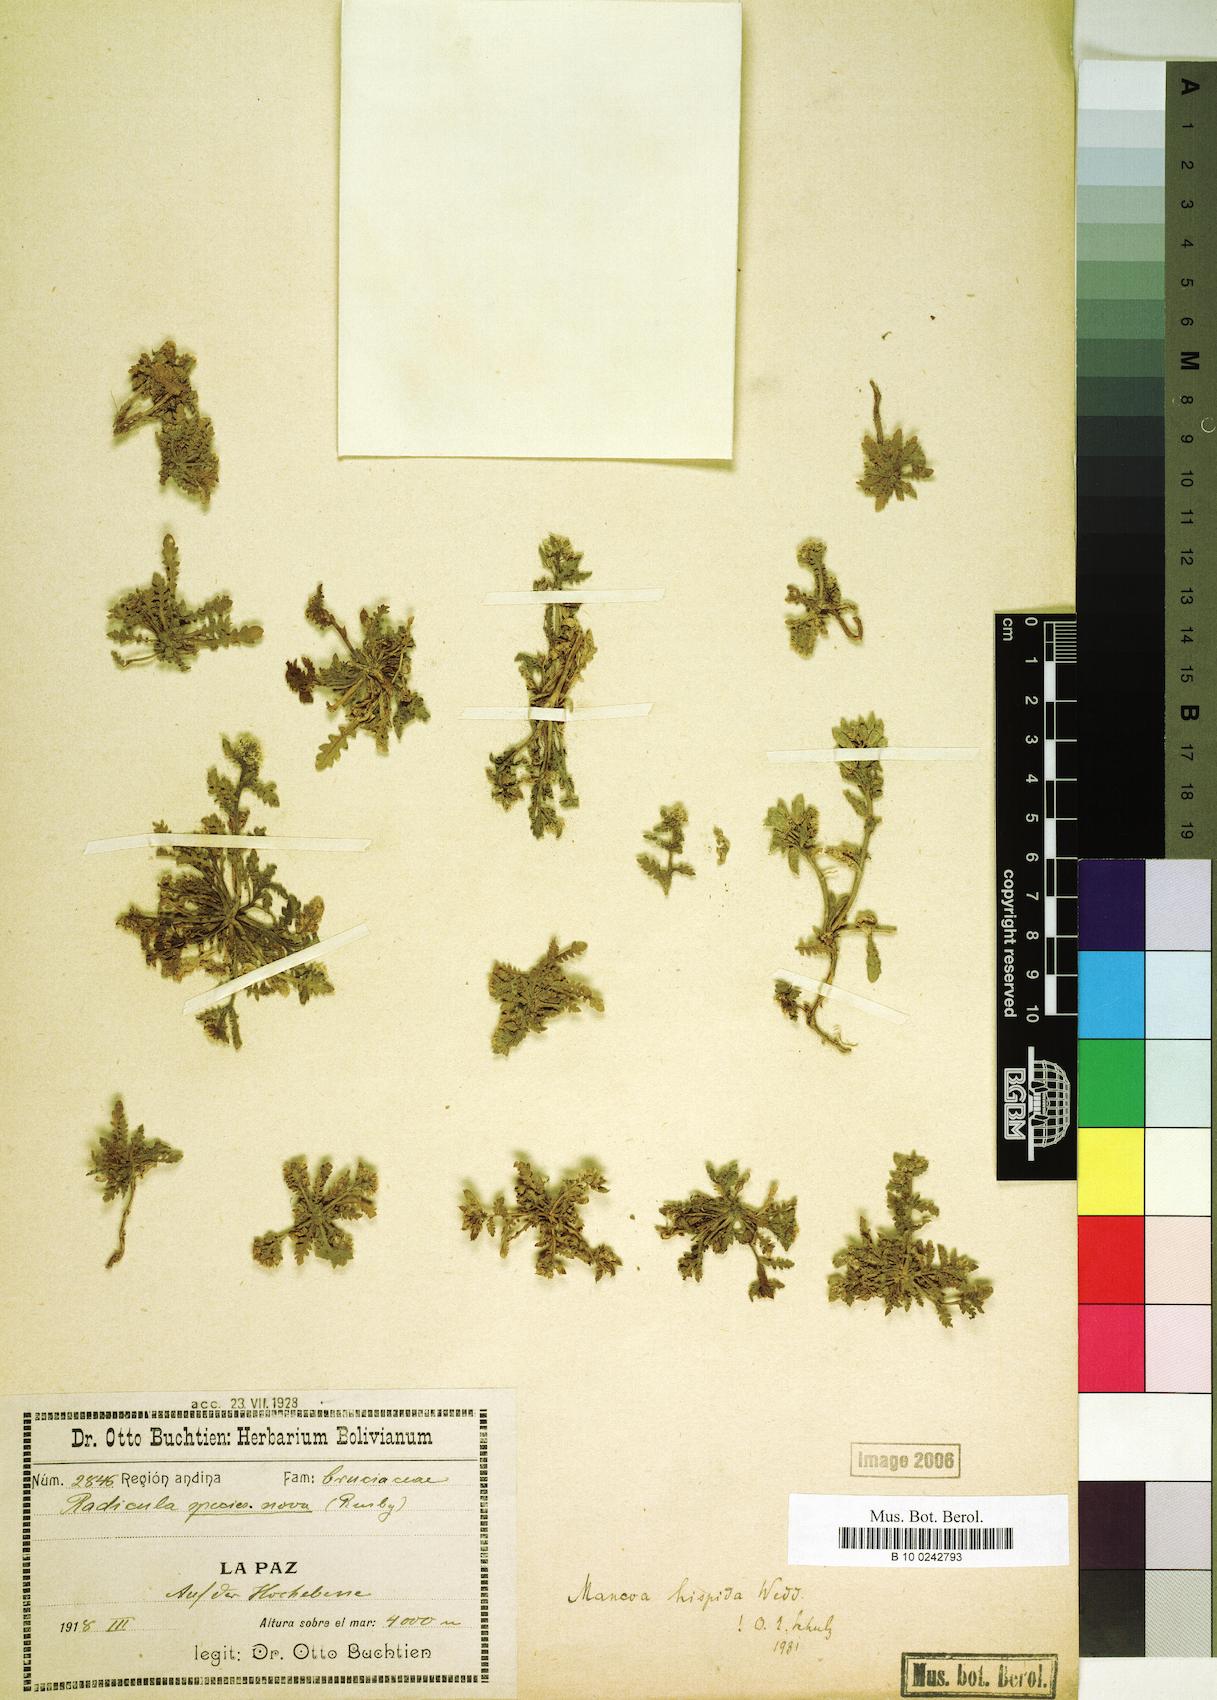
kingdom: Plantae
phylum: Tracheophyta
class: Magnoliopsida
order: Brassicales
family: Brassicaceae
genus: Mancoa
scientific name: Mancoa hispida
